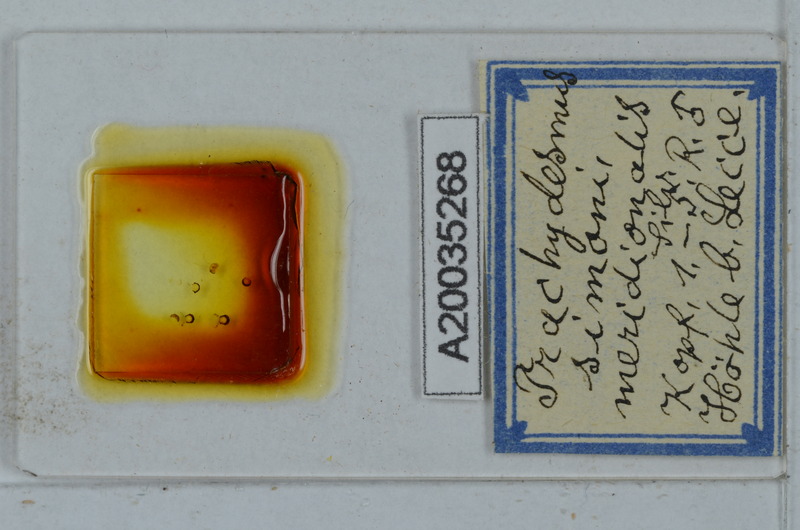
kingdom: Animalia
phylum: Arthropoda
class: Diplopoda
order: Polydesmida
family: Paradoxosomatidae
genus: Stosatea
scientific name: Stosatea granulata
